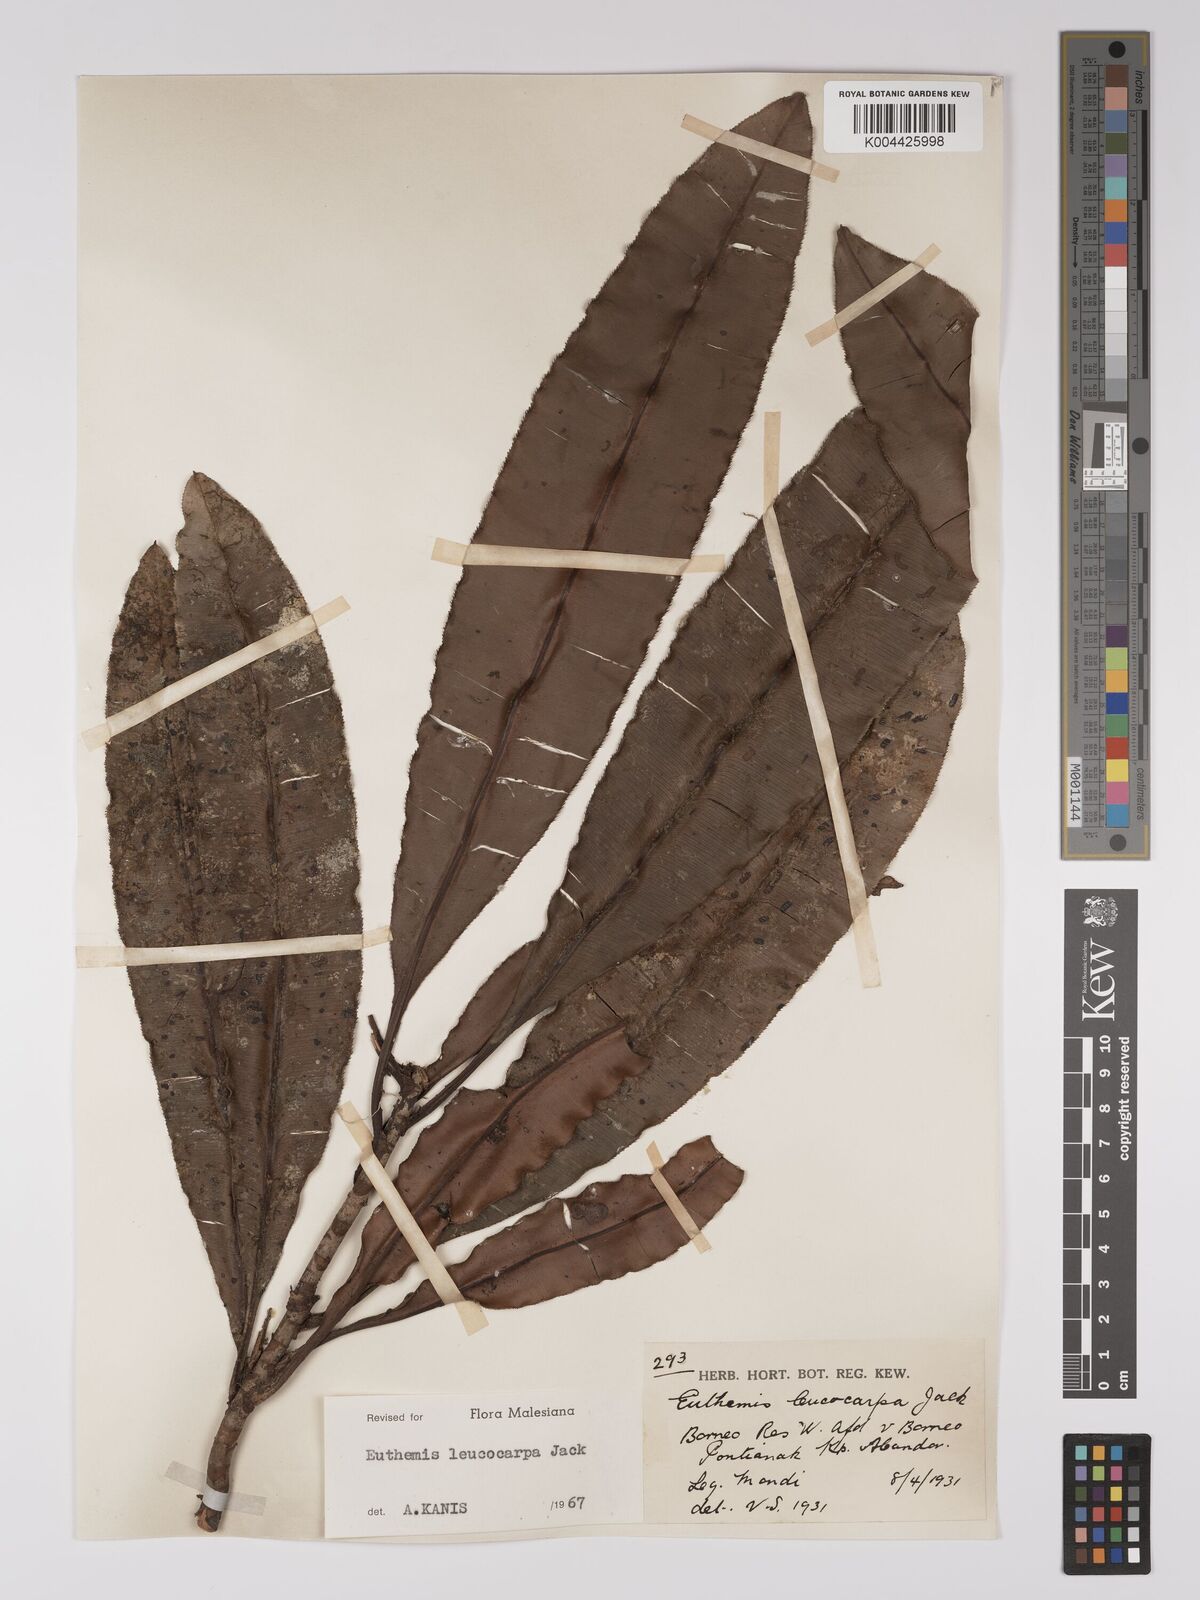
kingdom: Plantae
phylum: Tracheophyta
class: Magnoliopsida
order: Malpighiales
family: Ochnaceae
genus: Euthemis
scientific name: Euthemis leucocarpa
